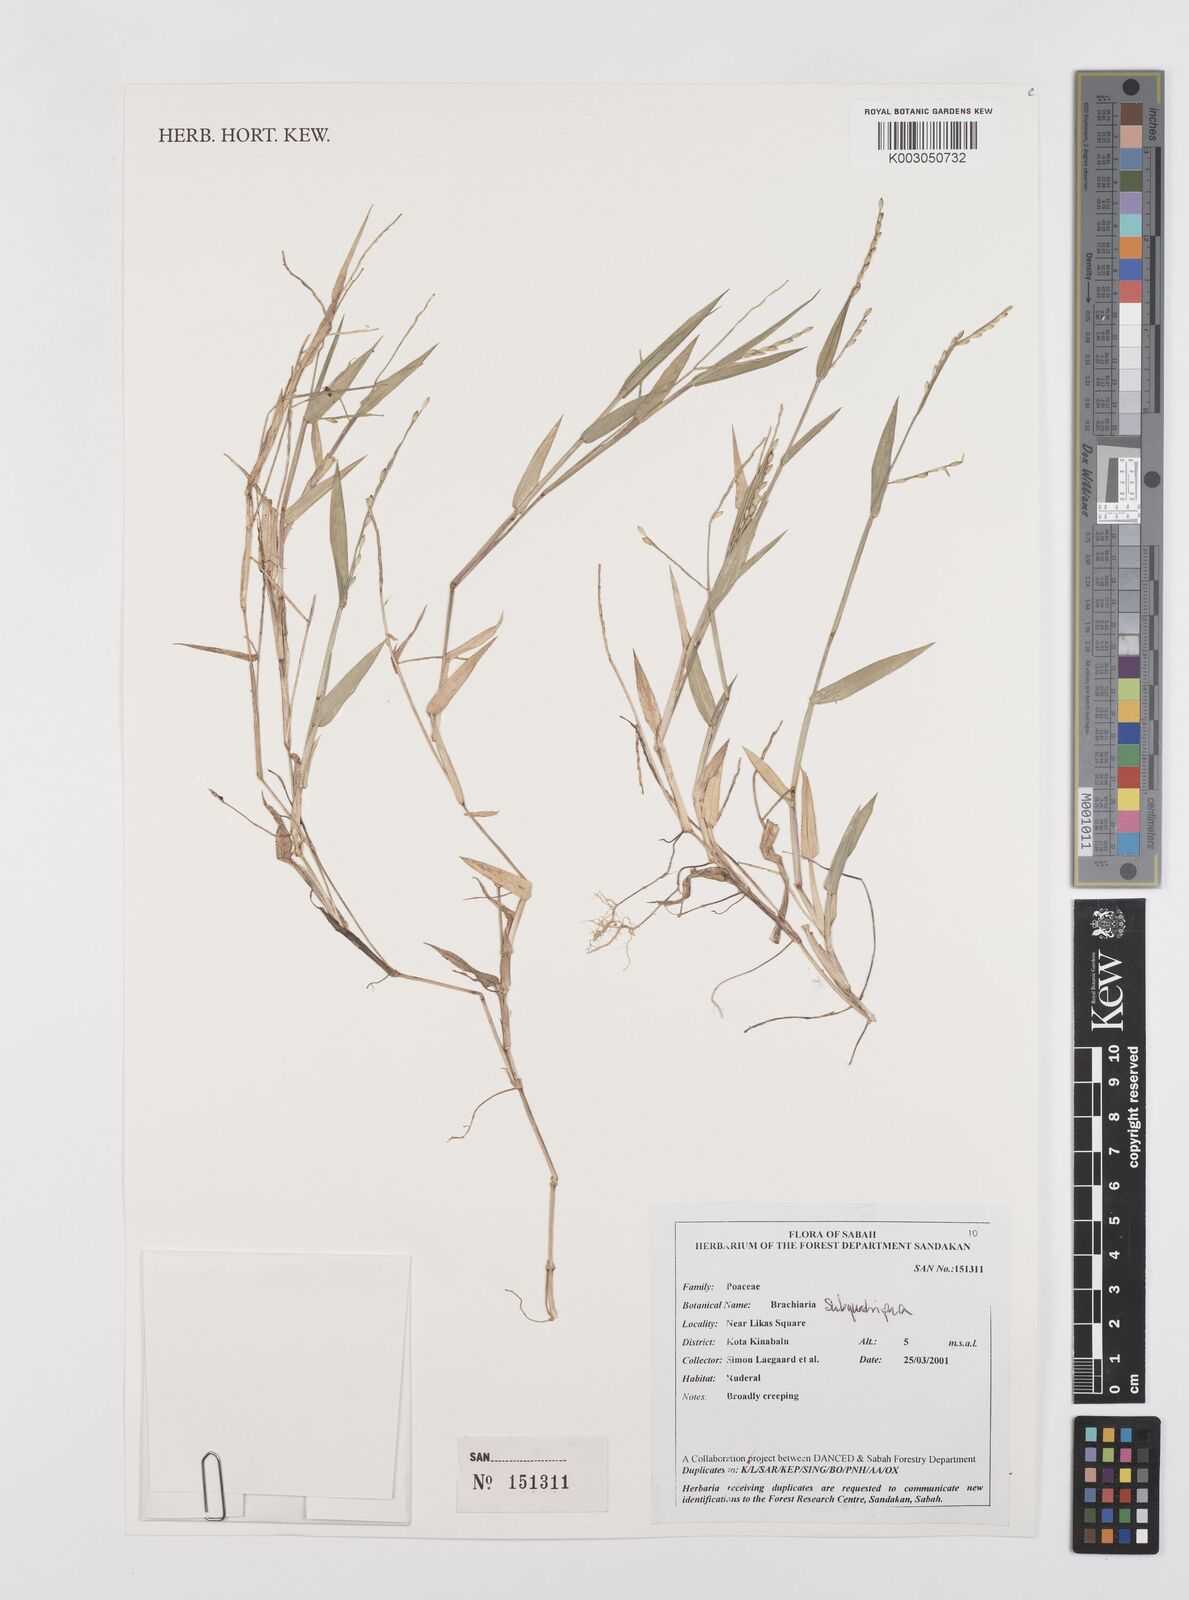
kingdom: Plantae
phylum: Tracheophyta
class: Liliopsida
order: Poales
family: Poaceae
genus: Urochloa
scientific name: Urochloa subquadripara
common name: Armgrass millet
